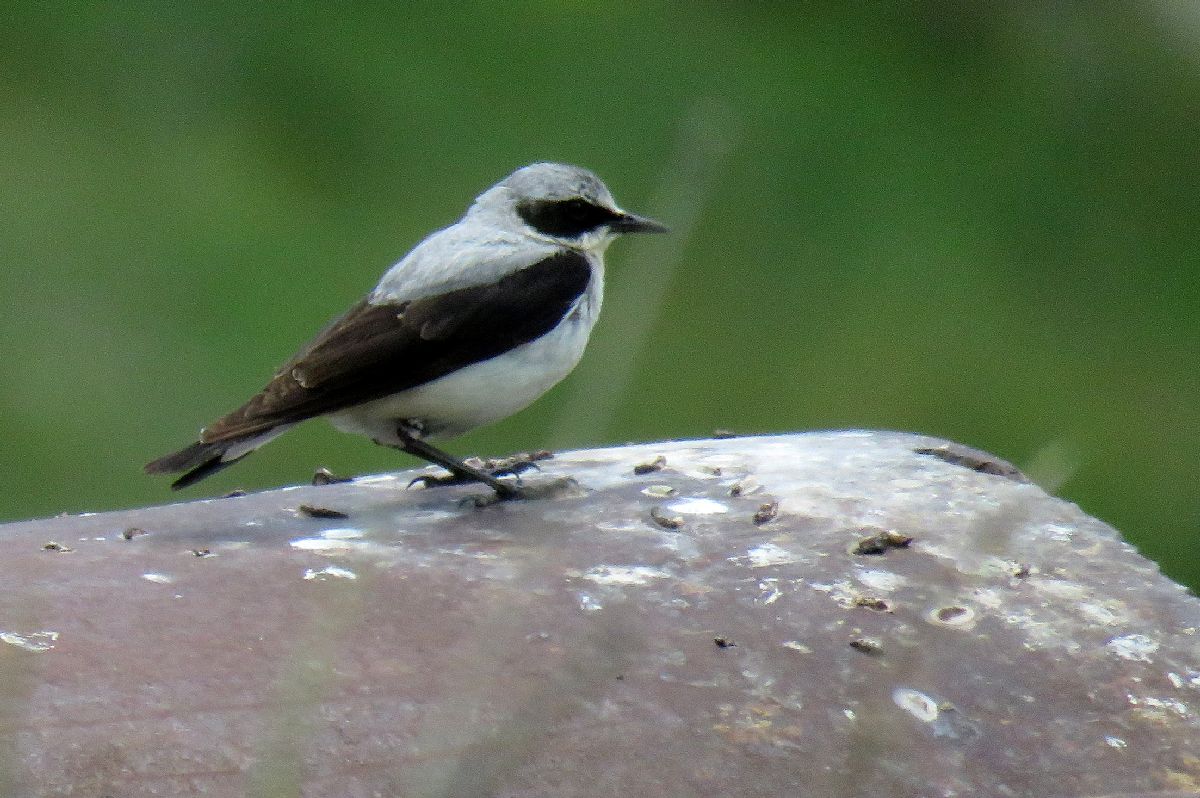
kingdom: Animalia
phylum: Chordata
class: Aves
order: Passeriformes
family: Muscicapidae
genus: Oenanthe
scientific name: Oenanthe oenanthe
